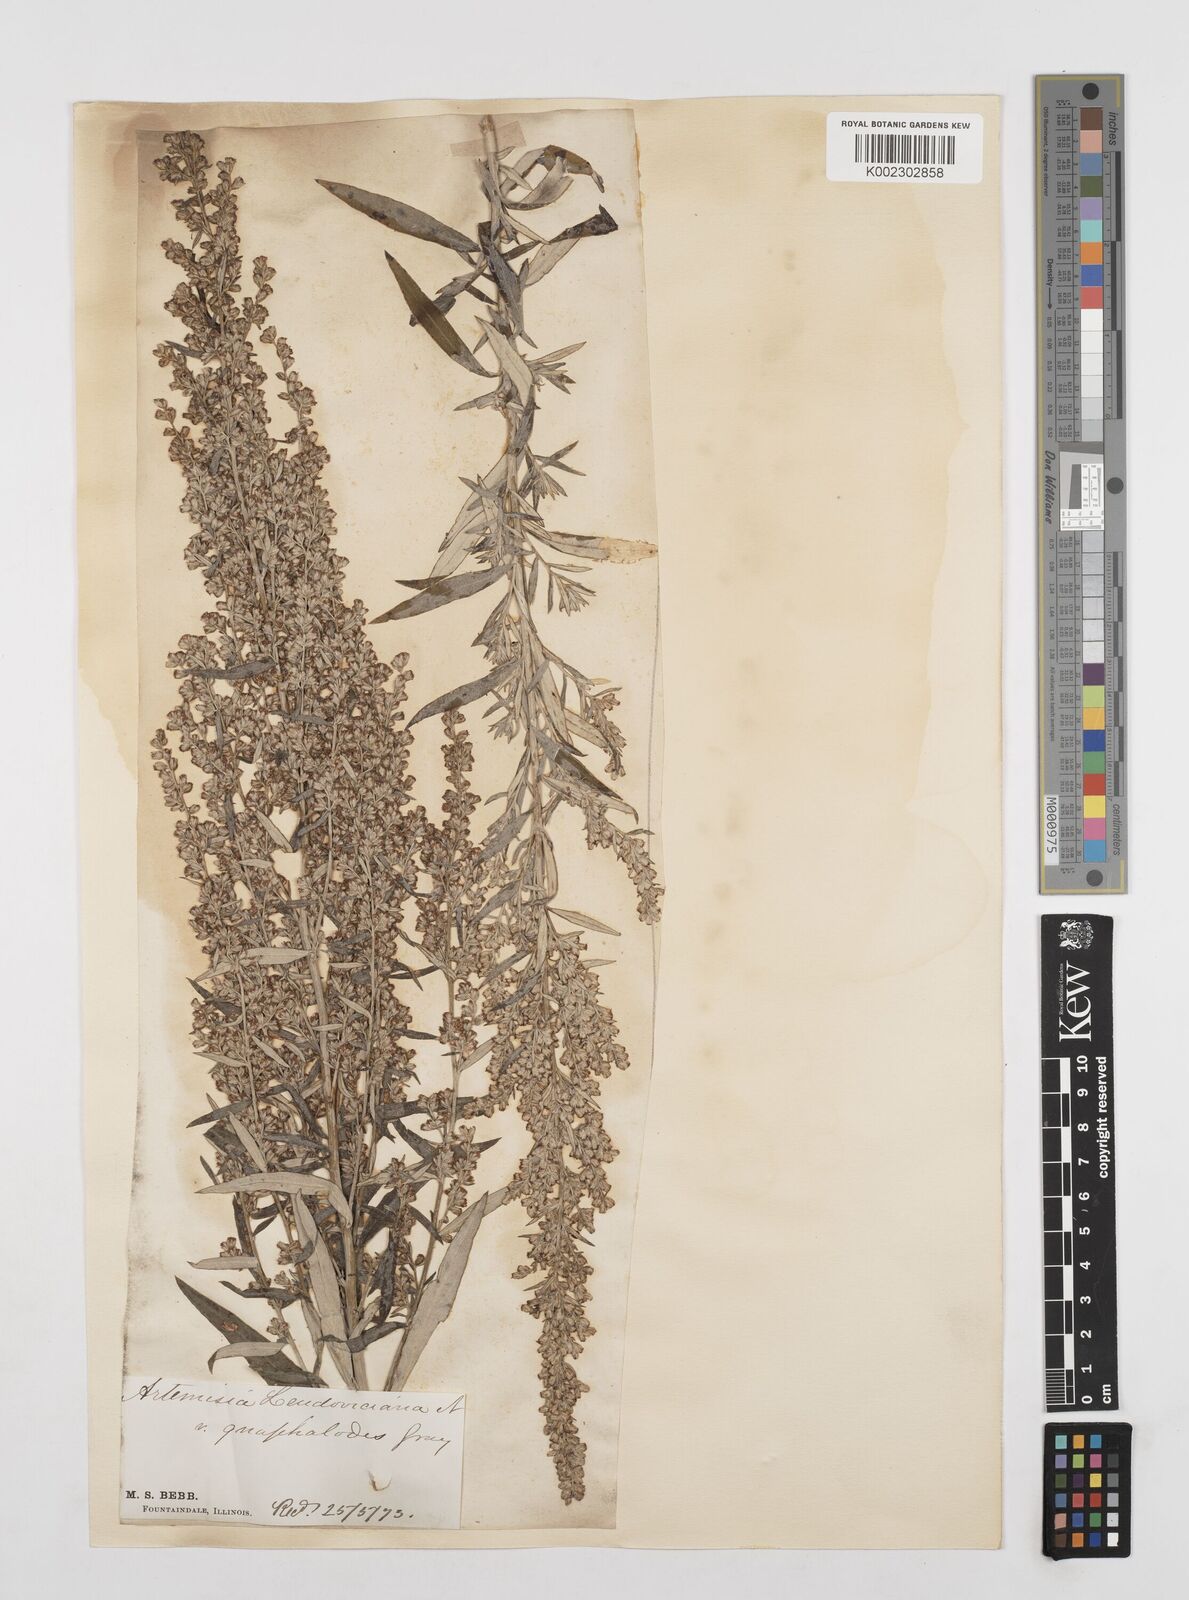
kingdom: Plantae
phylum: Tracheophyta
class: Magnoliopsida
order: Asterales
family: Asteraceae
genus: Artemisia
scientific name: Artemisia ludoviciana
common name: Western mugwort
